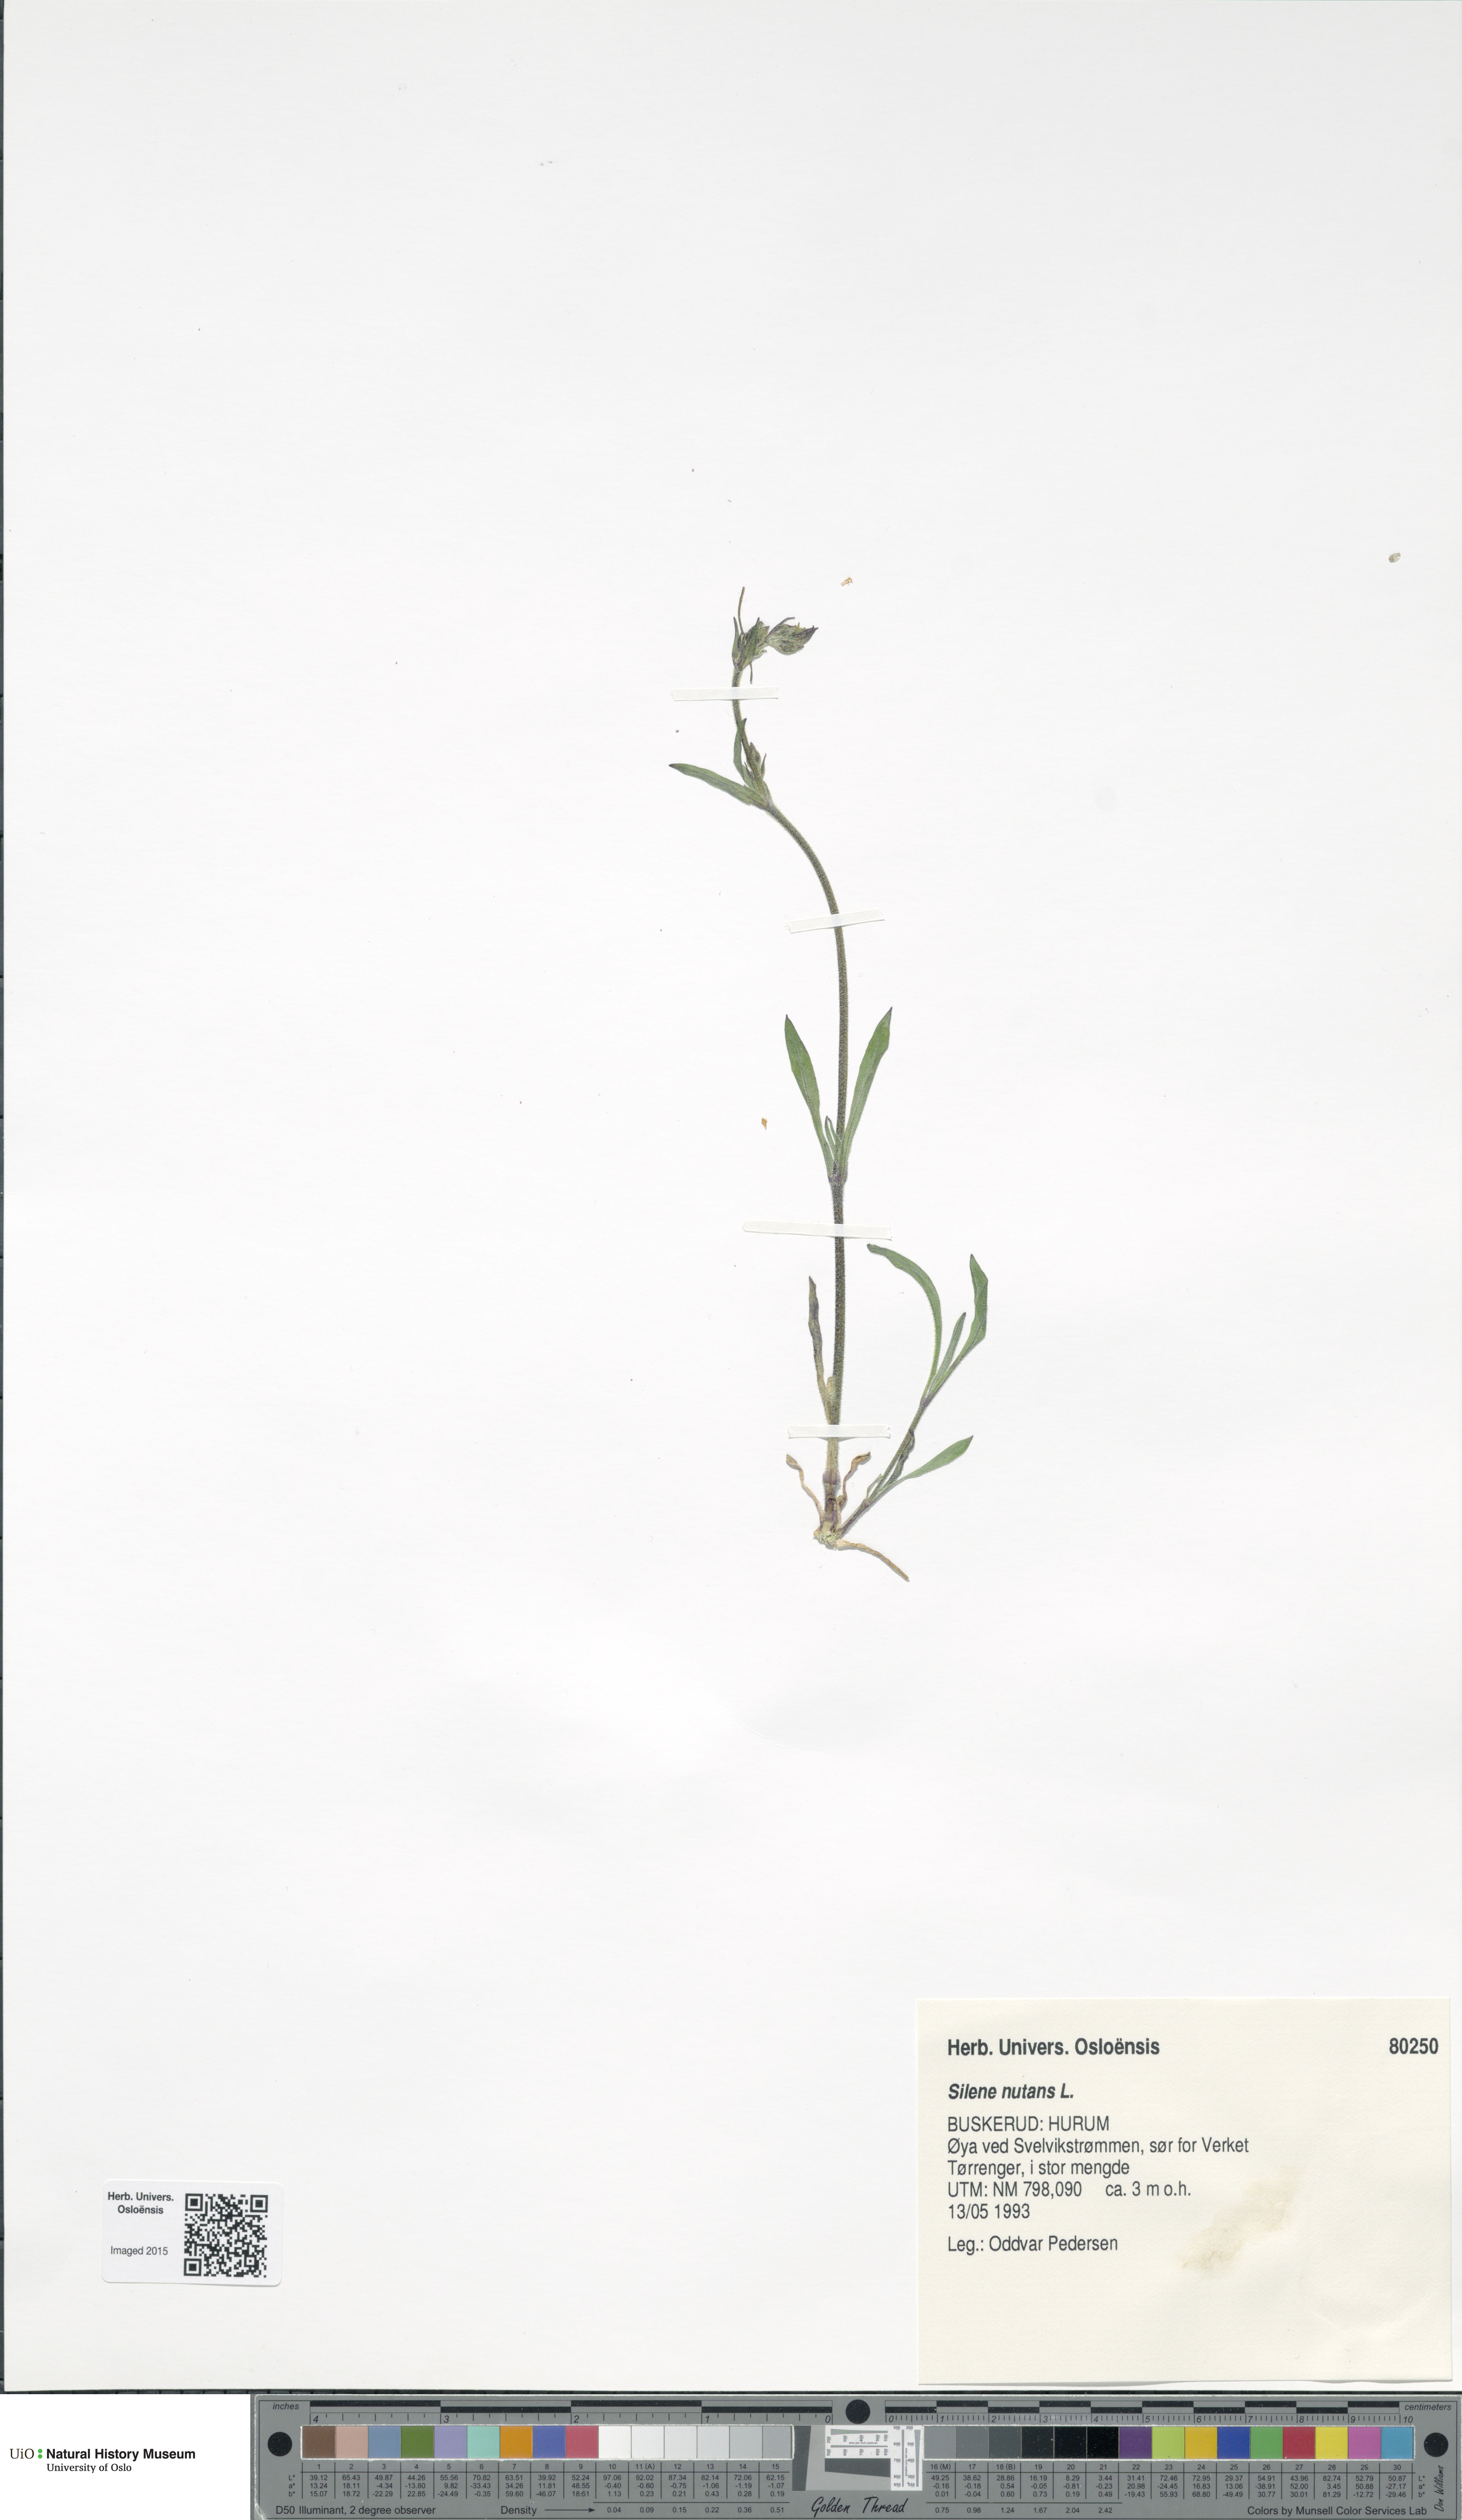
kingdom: Plantae
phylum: Tracheophyta
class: Magnoliopsida
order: Caryophyllales
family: Caryophyllaceae
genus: Silene
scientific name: Silene nutans
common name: Nottingham catchfly
